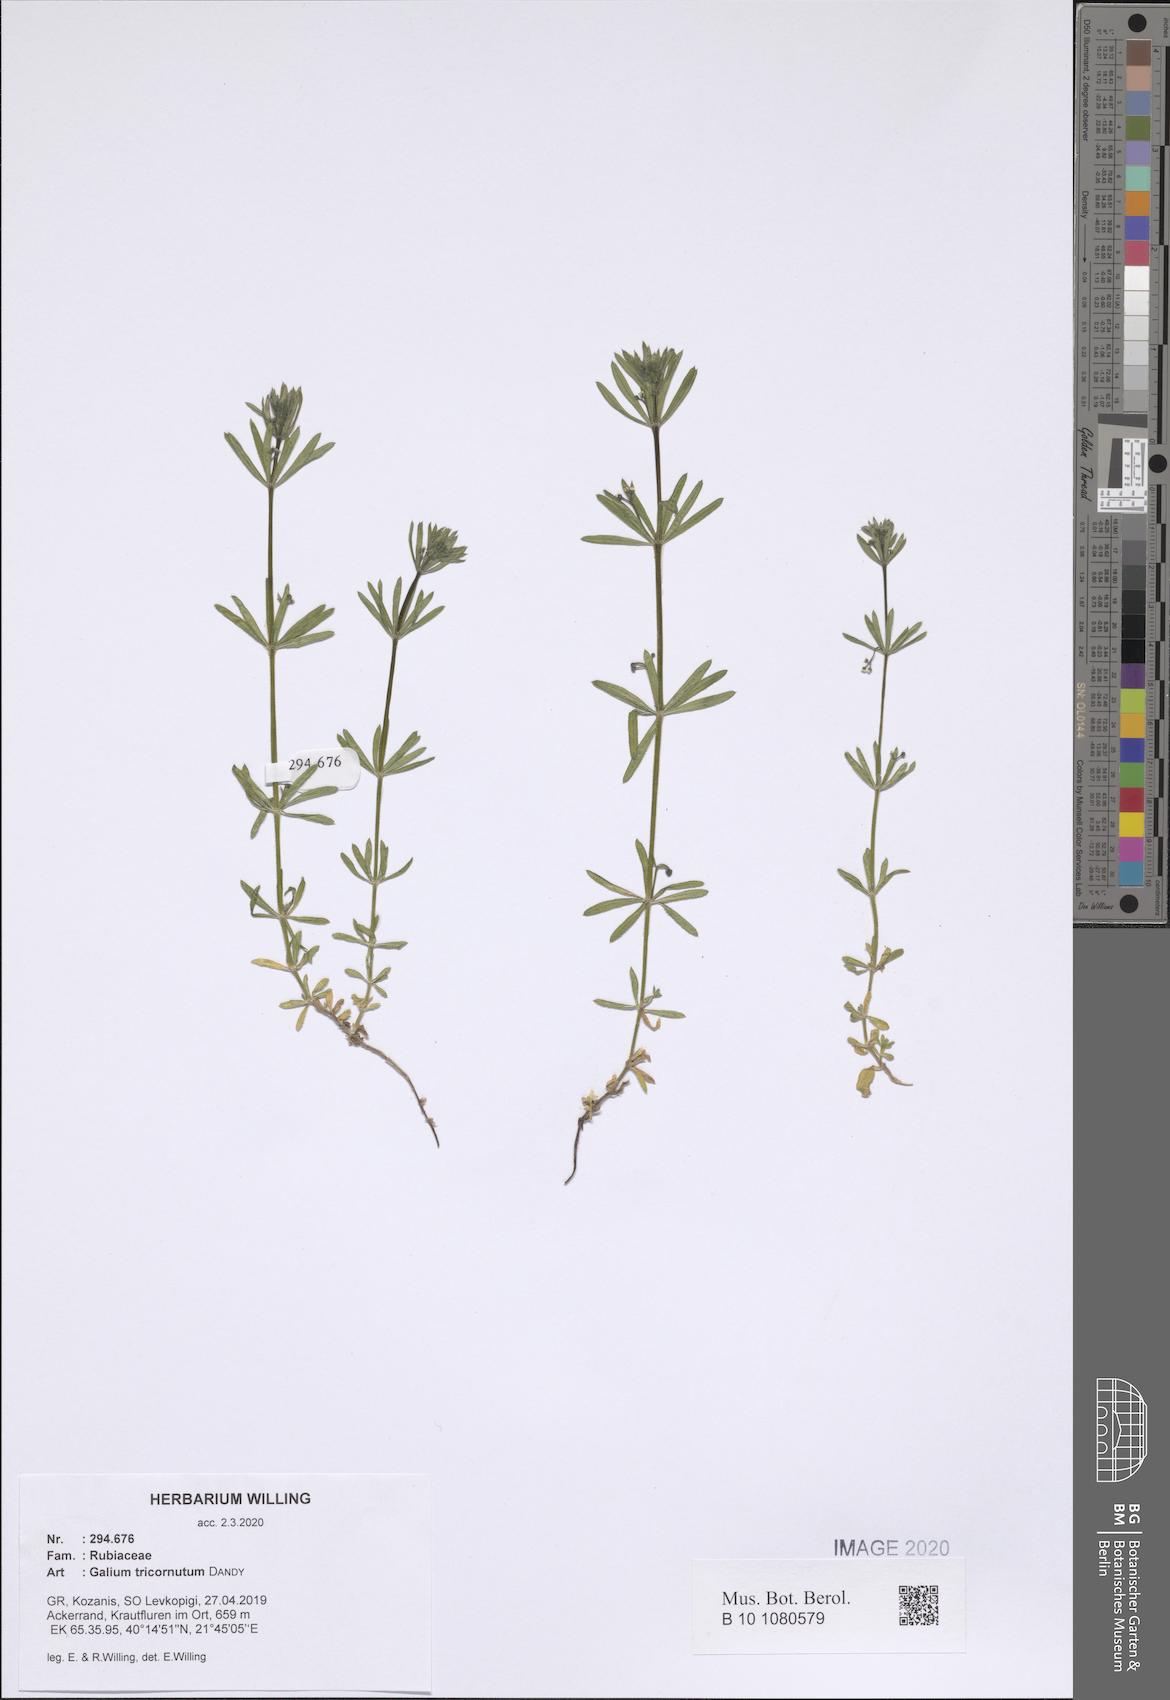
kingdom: Plantae
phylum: Tracheophyta
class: Magnoliopsida
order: Gentianales
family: Rubiaceae
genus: Galium
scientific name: Galium tricornutum
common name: Corn cleavers
